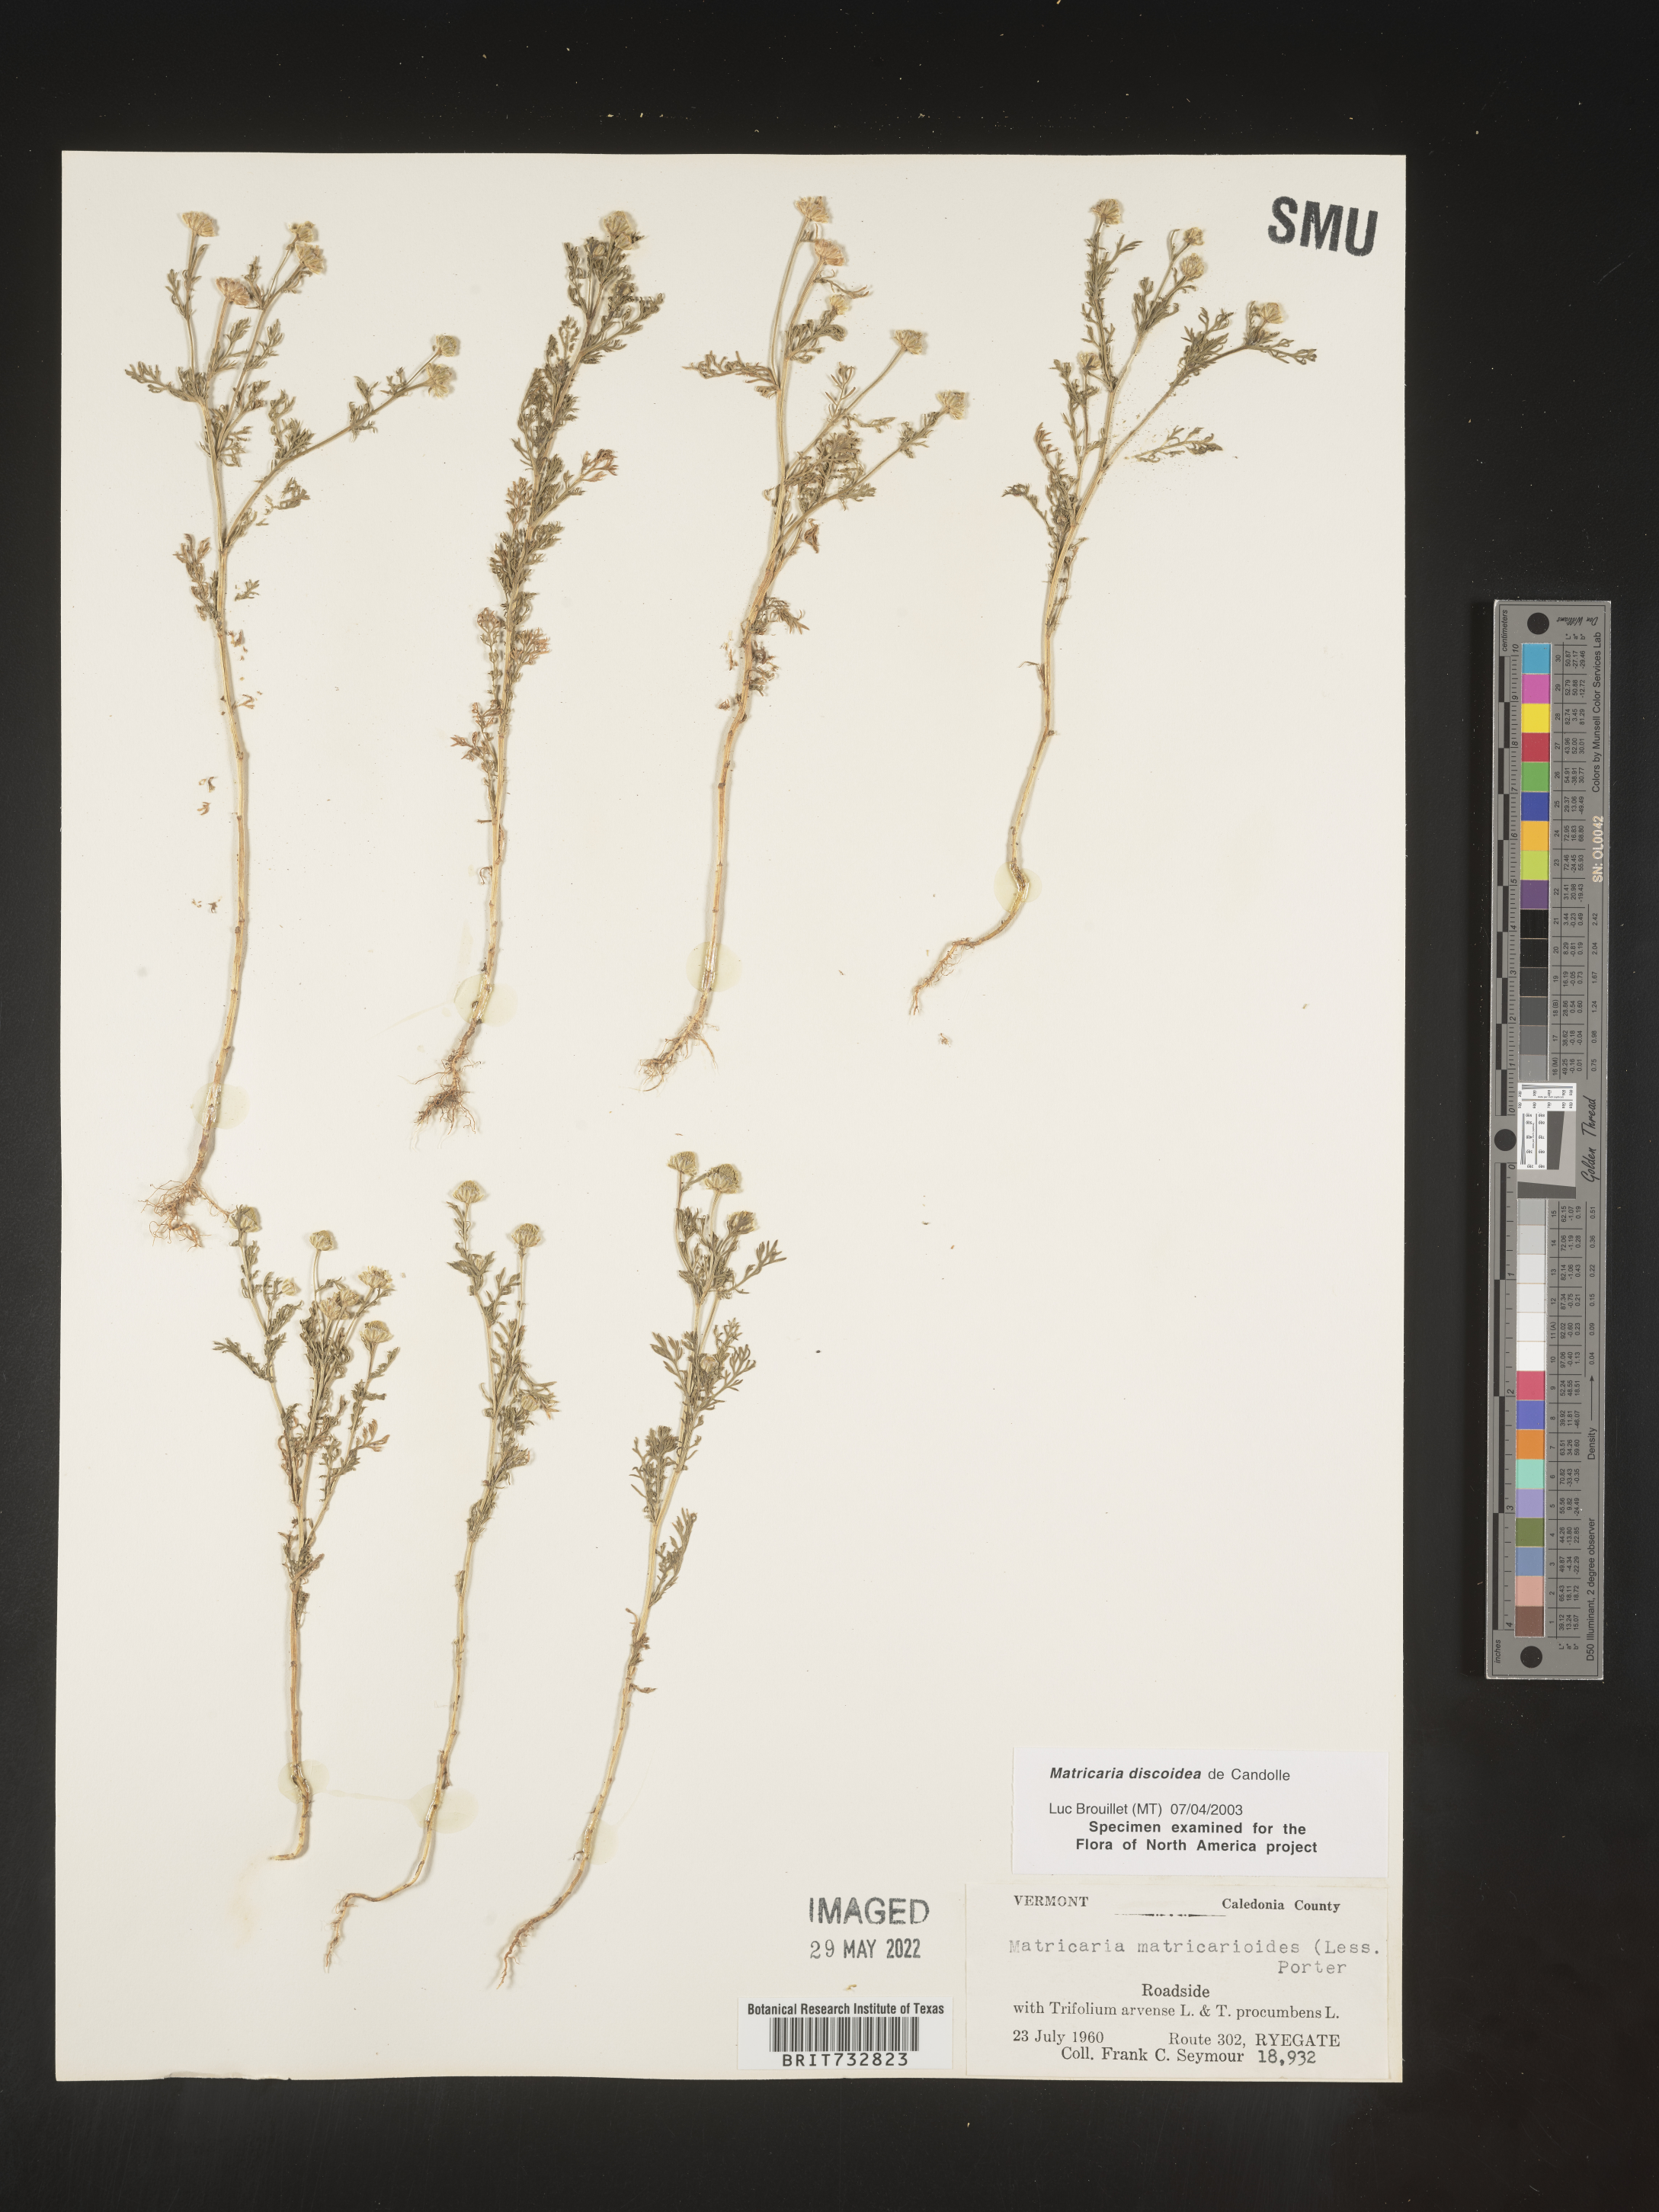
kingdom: Plantae
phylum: Tracheophyta
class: Magnoliopsida
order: Asterales
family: Asteraceae
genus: Matricaria
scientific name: Matricaria discoidea
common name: Disc mayweed
